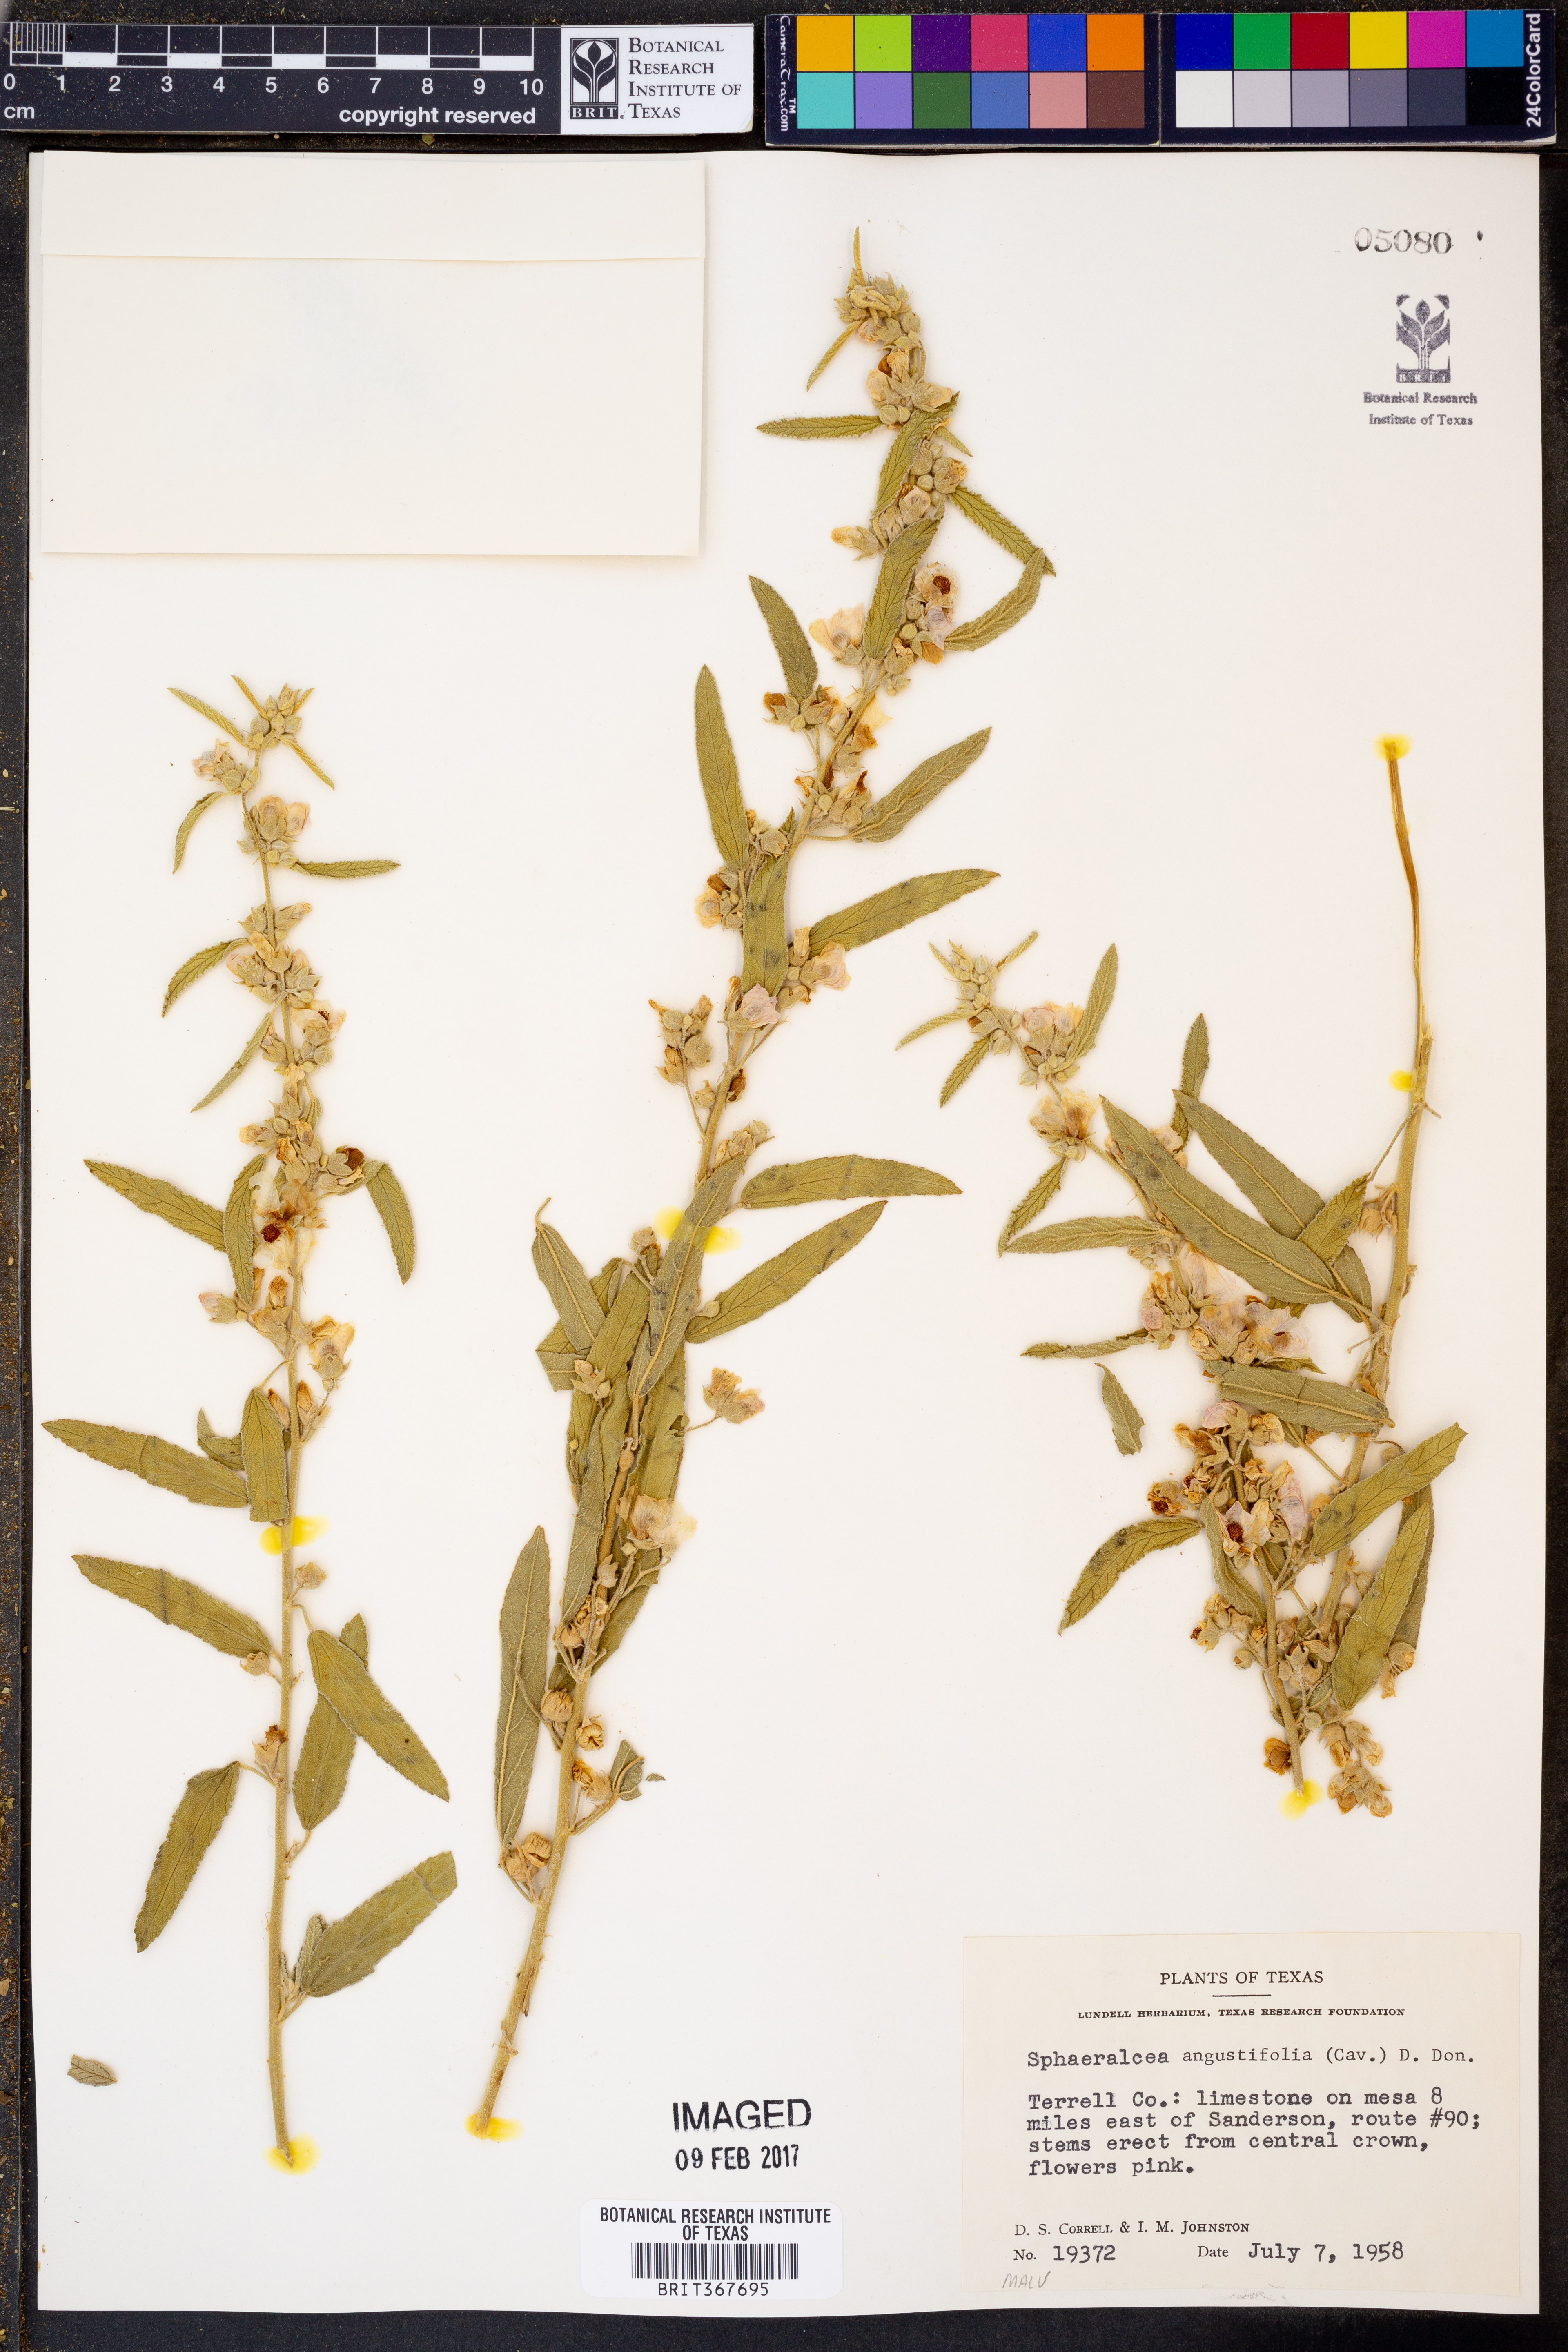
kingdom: Plantae
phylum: Tracheophyta
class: Magnoliopsida
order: Malvales
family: Malvaceae
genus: Sphaeralcea
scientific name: Sphaeralcea angustifolia
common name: Copper globe-mallow
